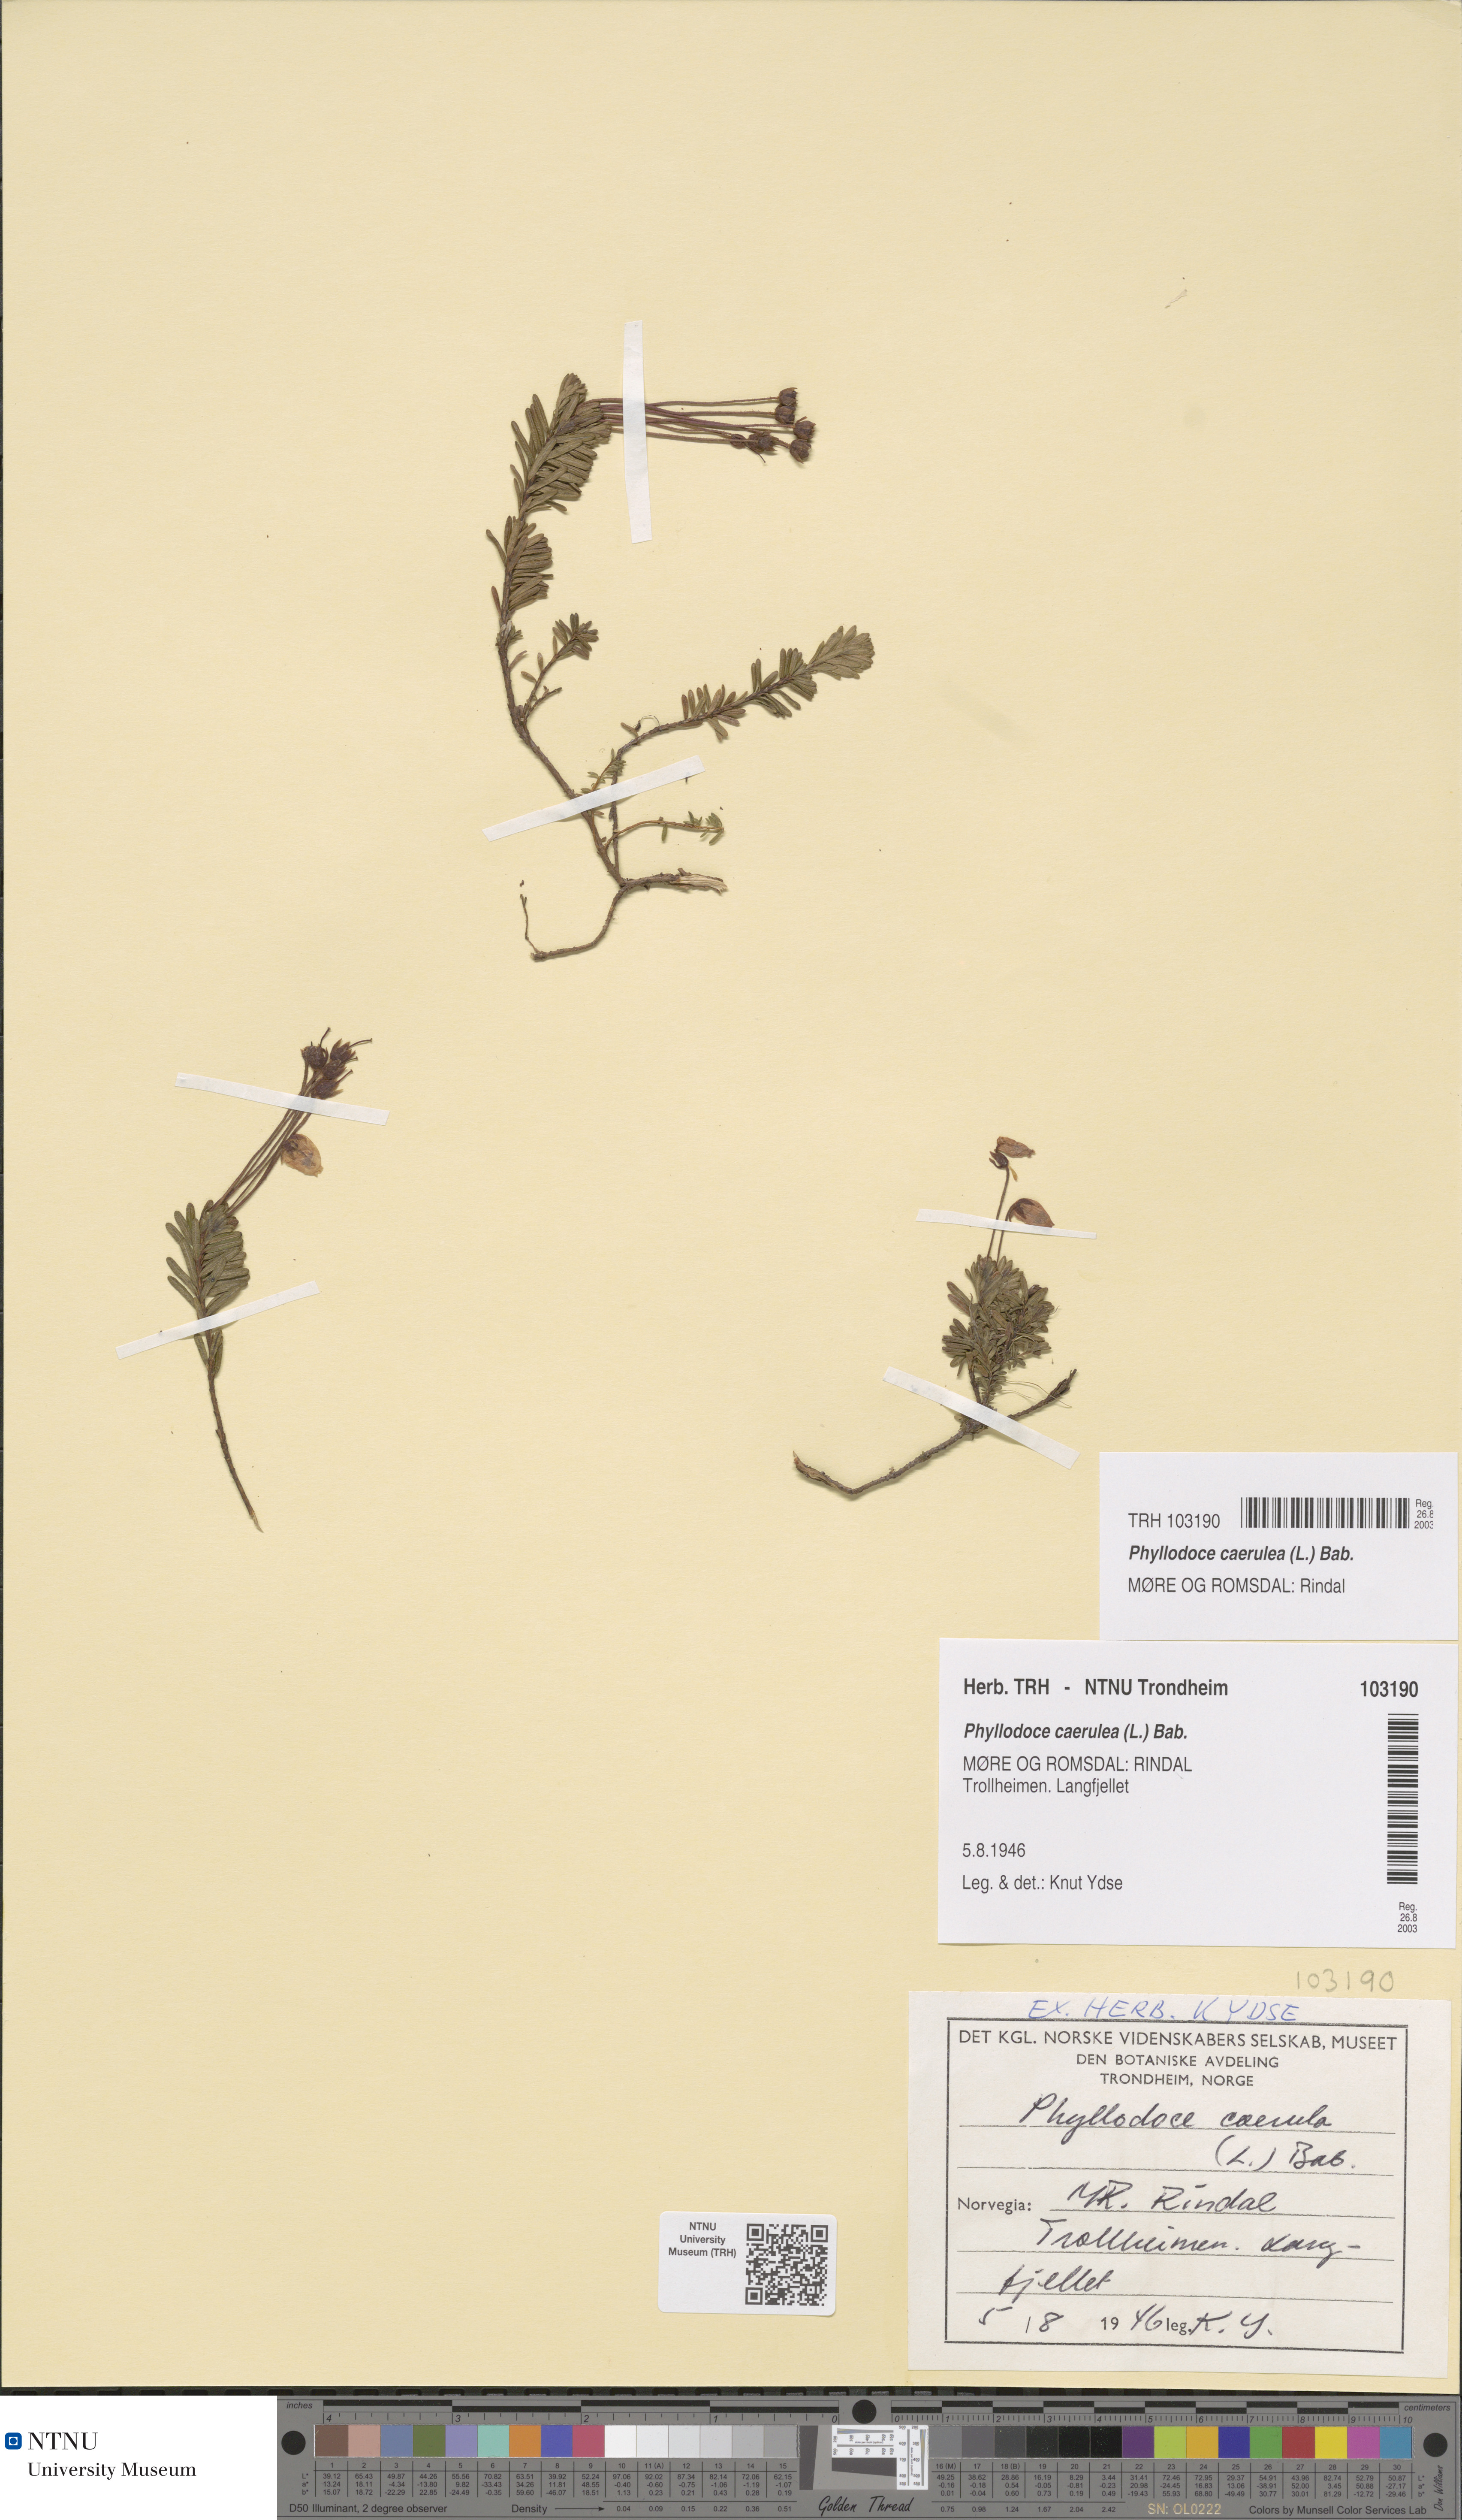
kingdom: Plantae
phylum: Tracheophyta
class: Magnoliopsida
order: Ericales
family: Ericaceae
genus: Phyllodoce
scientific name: Phyllodoce caerulea
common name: Blue heath
